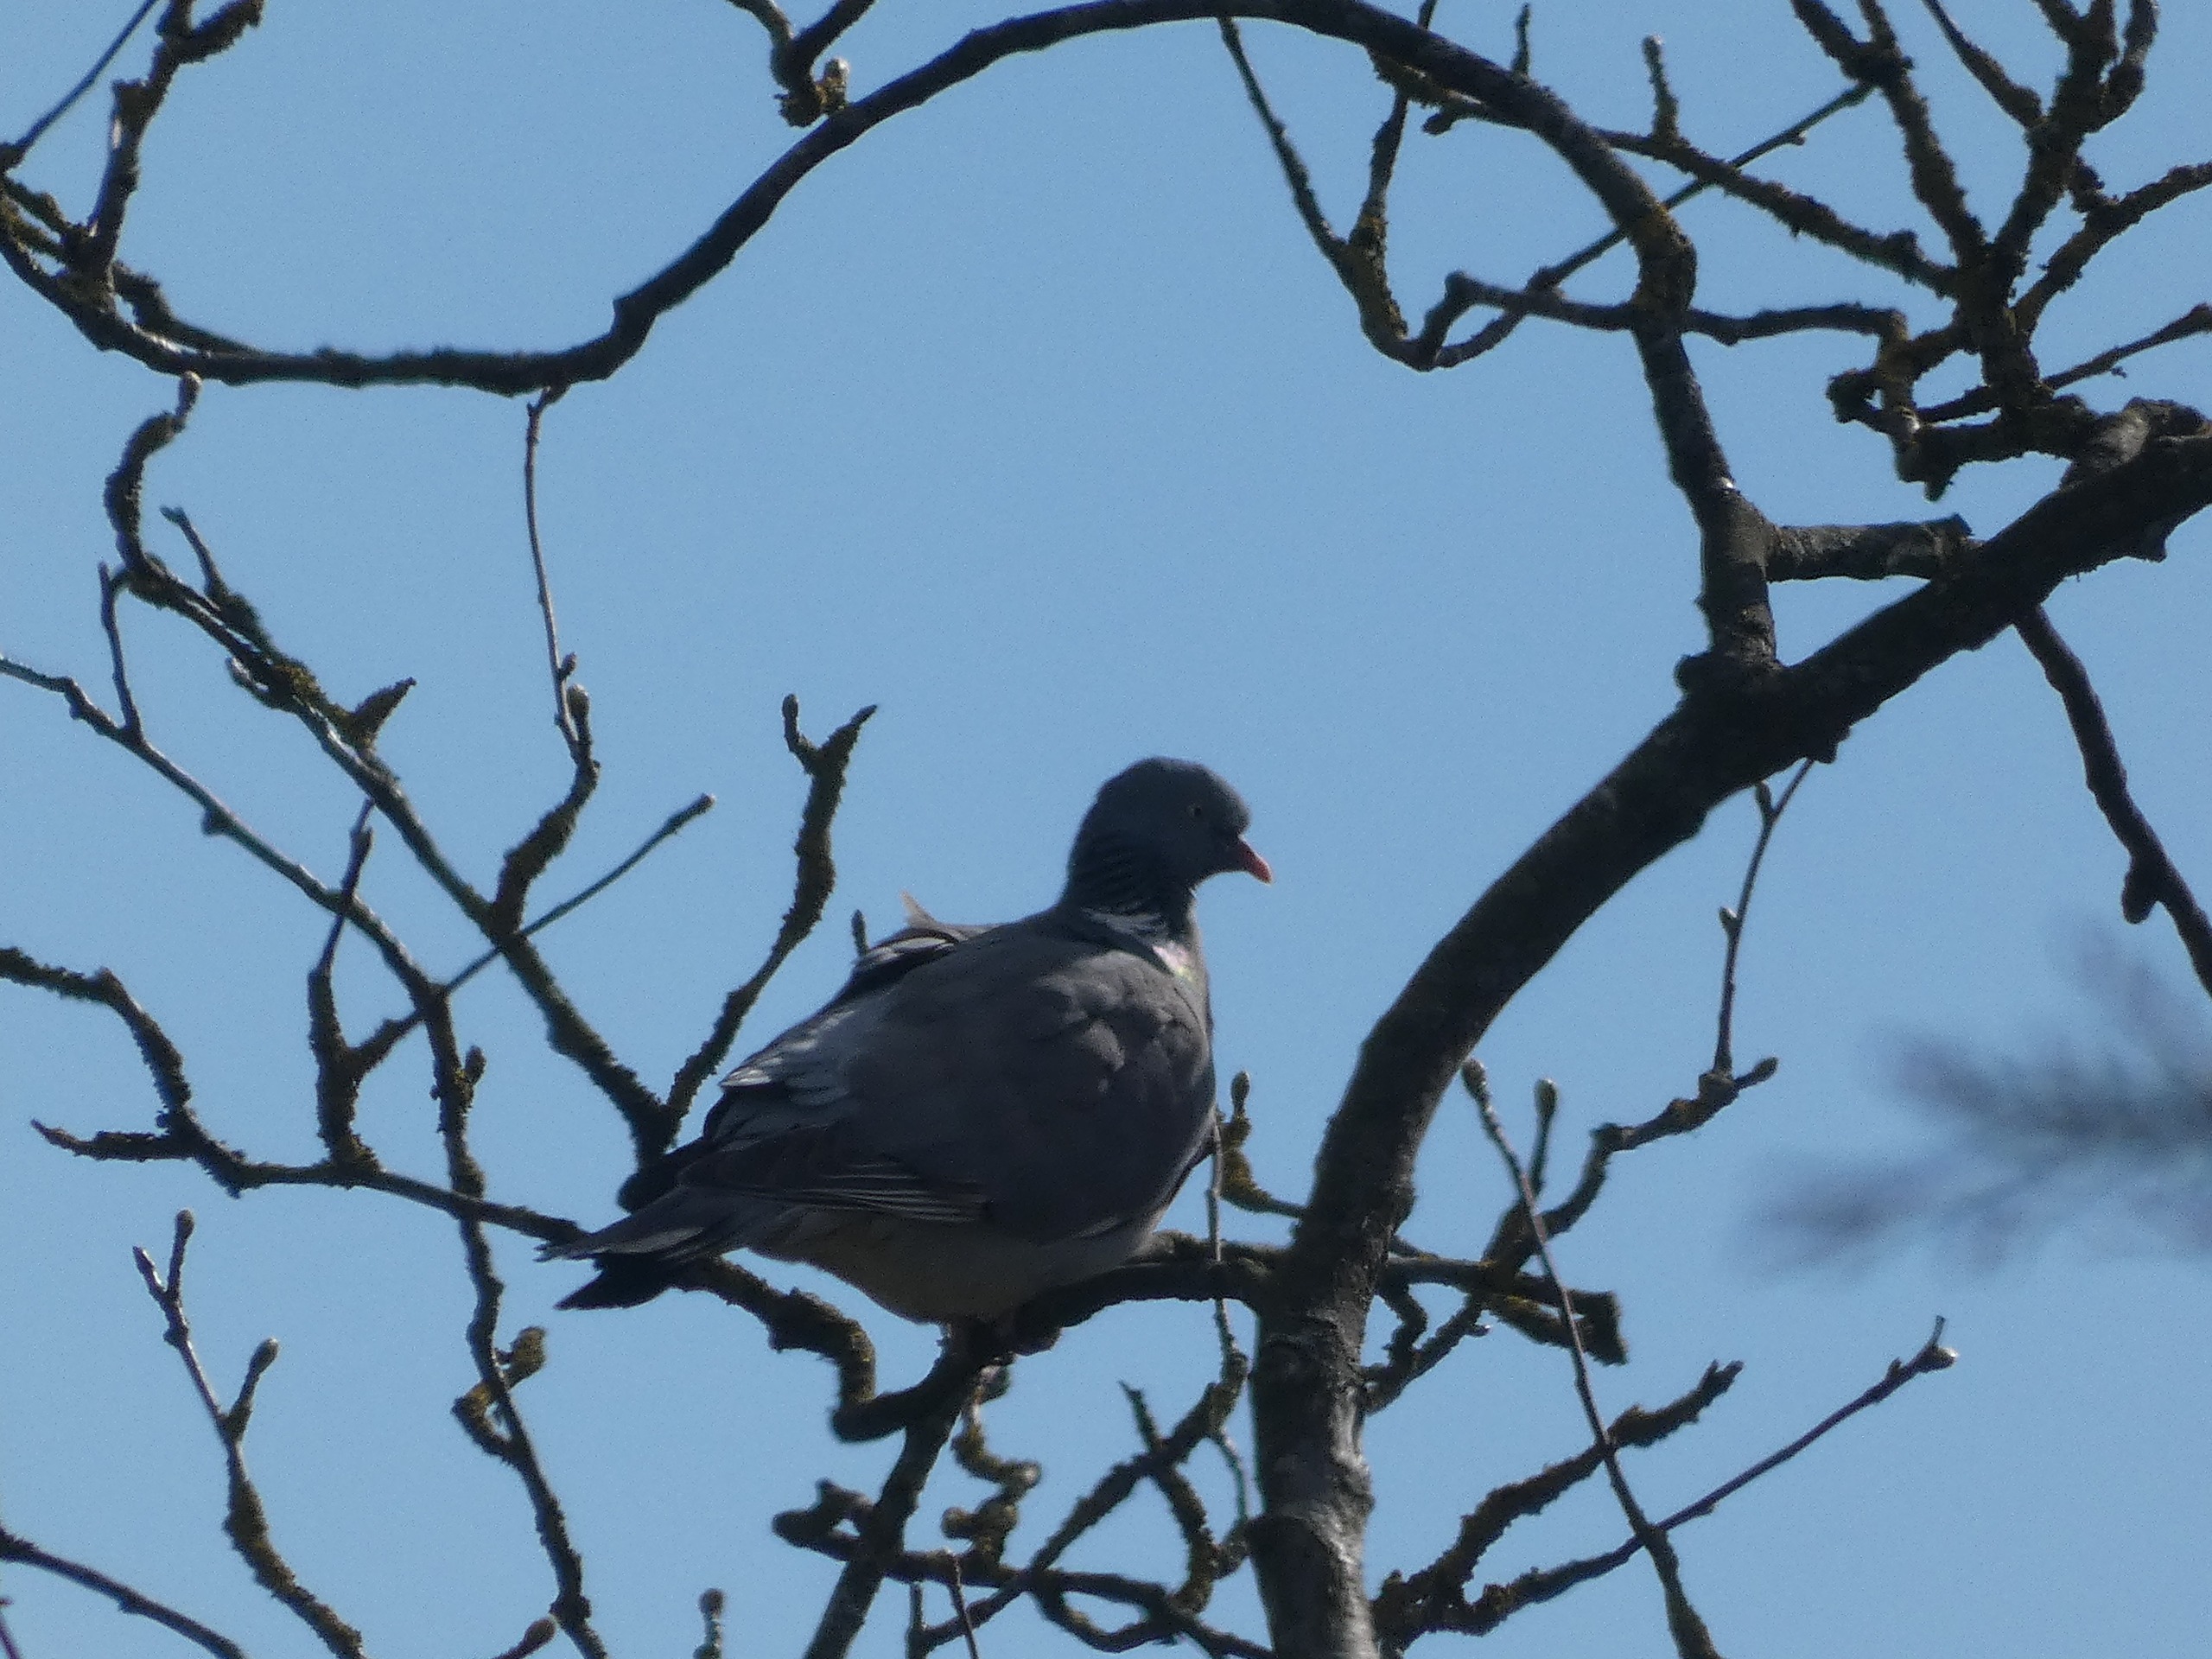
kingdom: Animalia
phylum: Chordata
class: Aves
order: Columbiformes
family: Columbidae
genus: Columba
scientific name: Columba palumbus
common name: Ringdue
